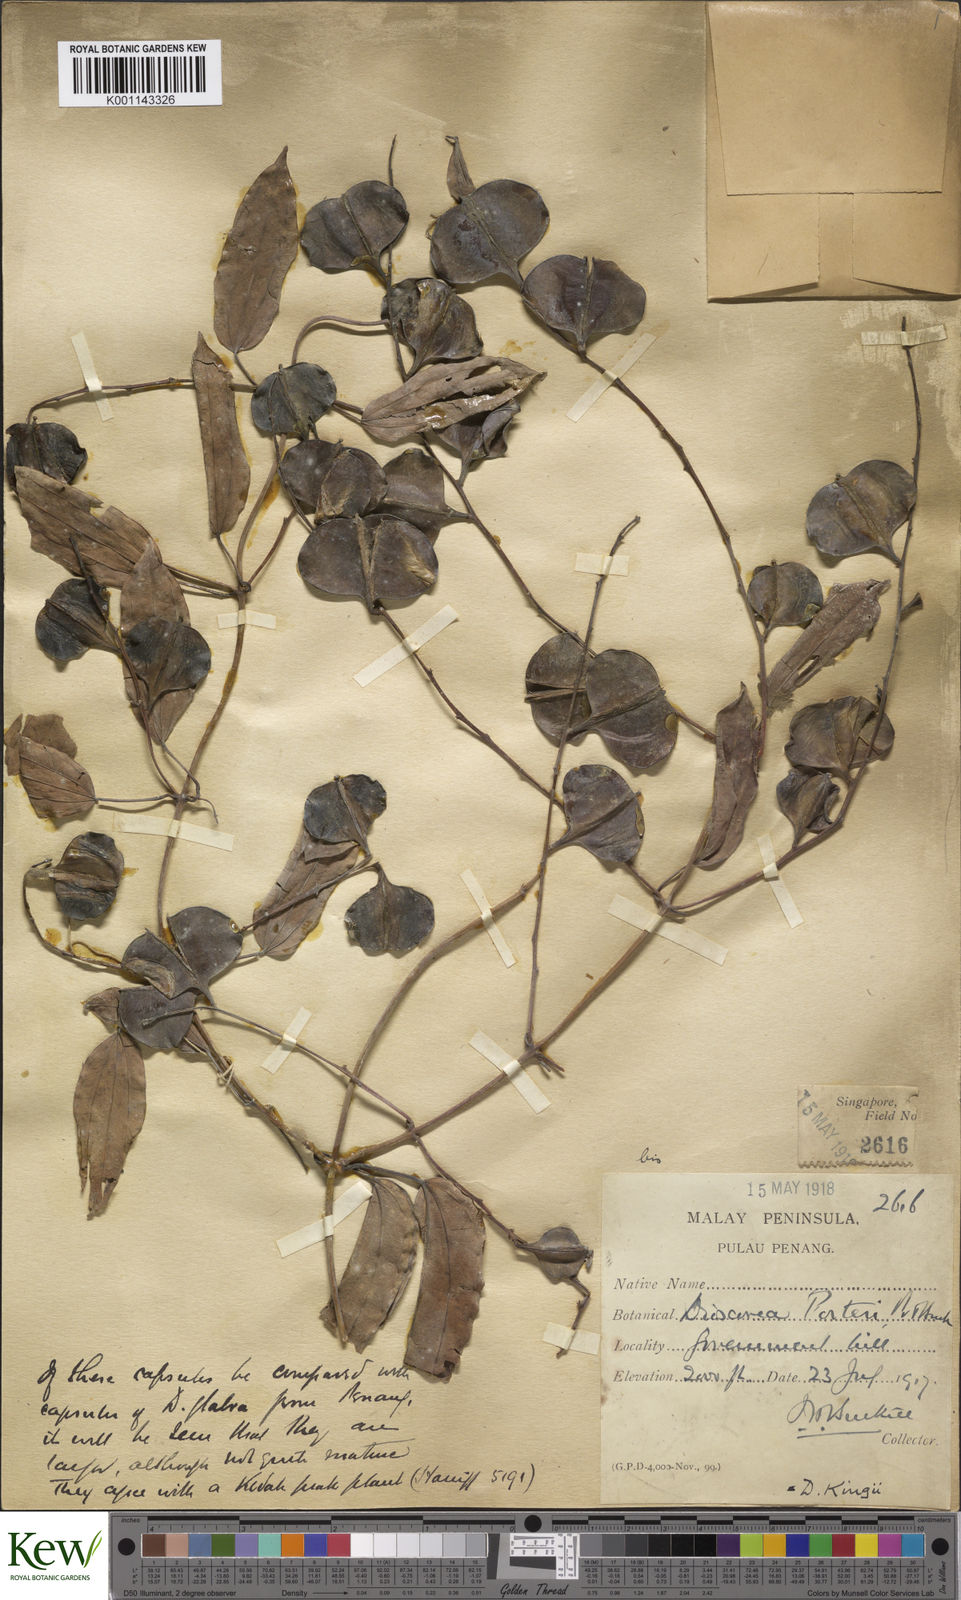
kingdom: Plantae
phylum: Tracheophyta
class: Liliopsida
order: Dioscoreales
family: Dioscoreaceae
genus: Dioscorea
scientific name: Dioscorea kingii
